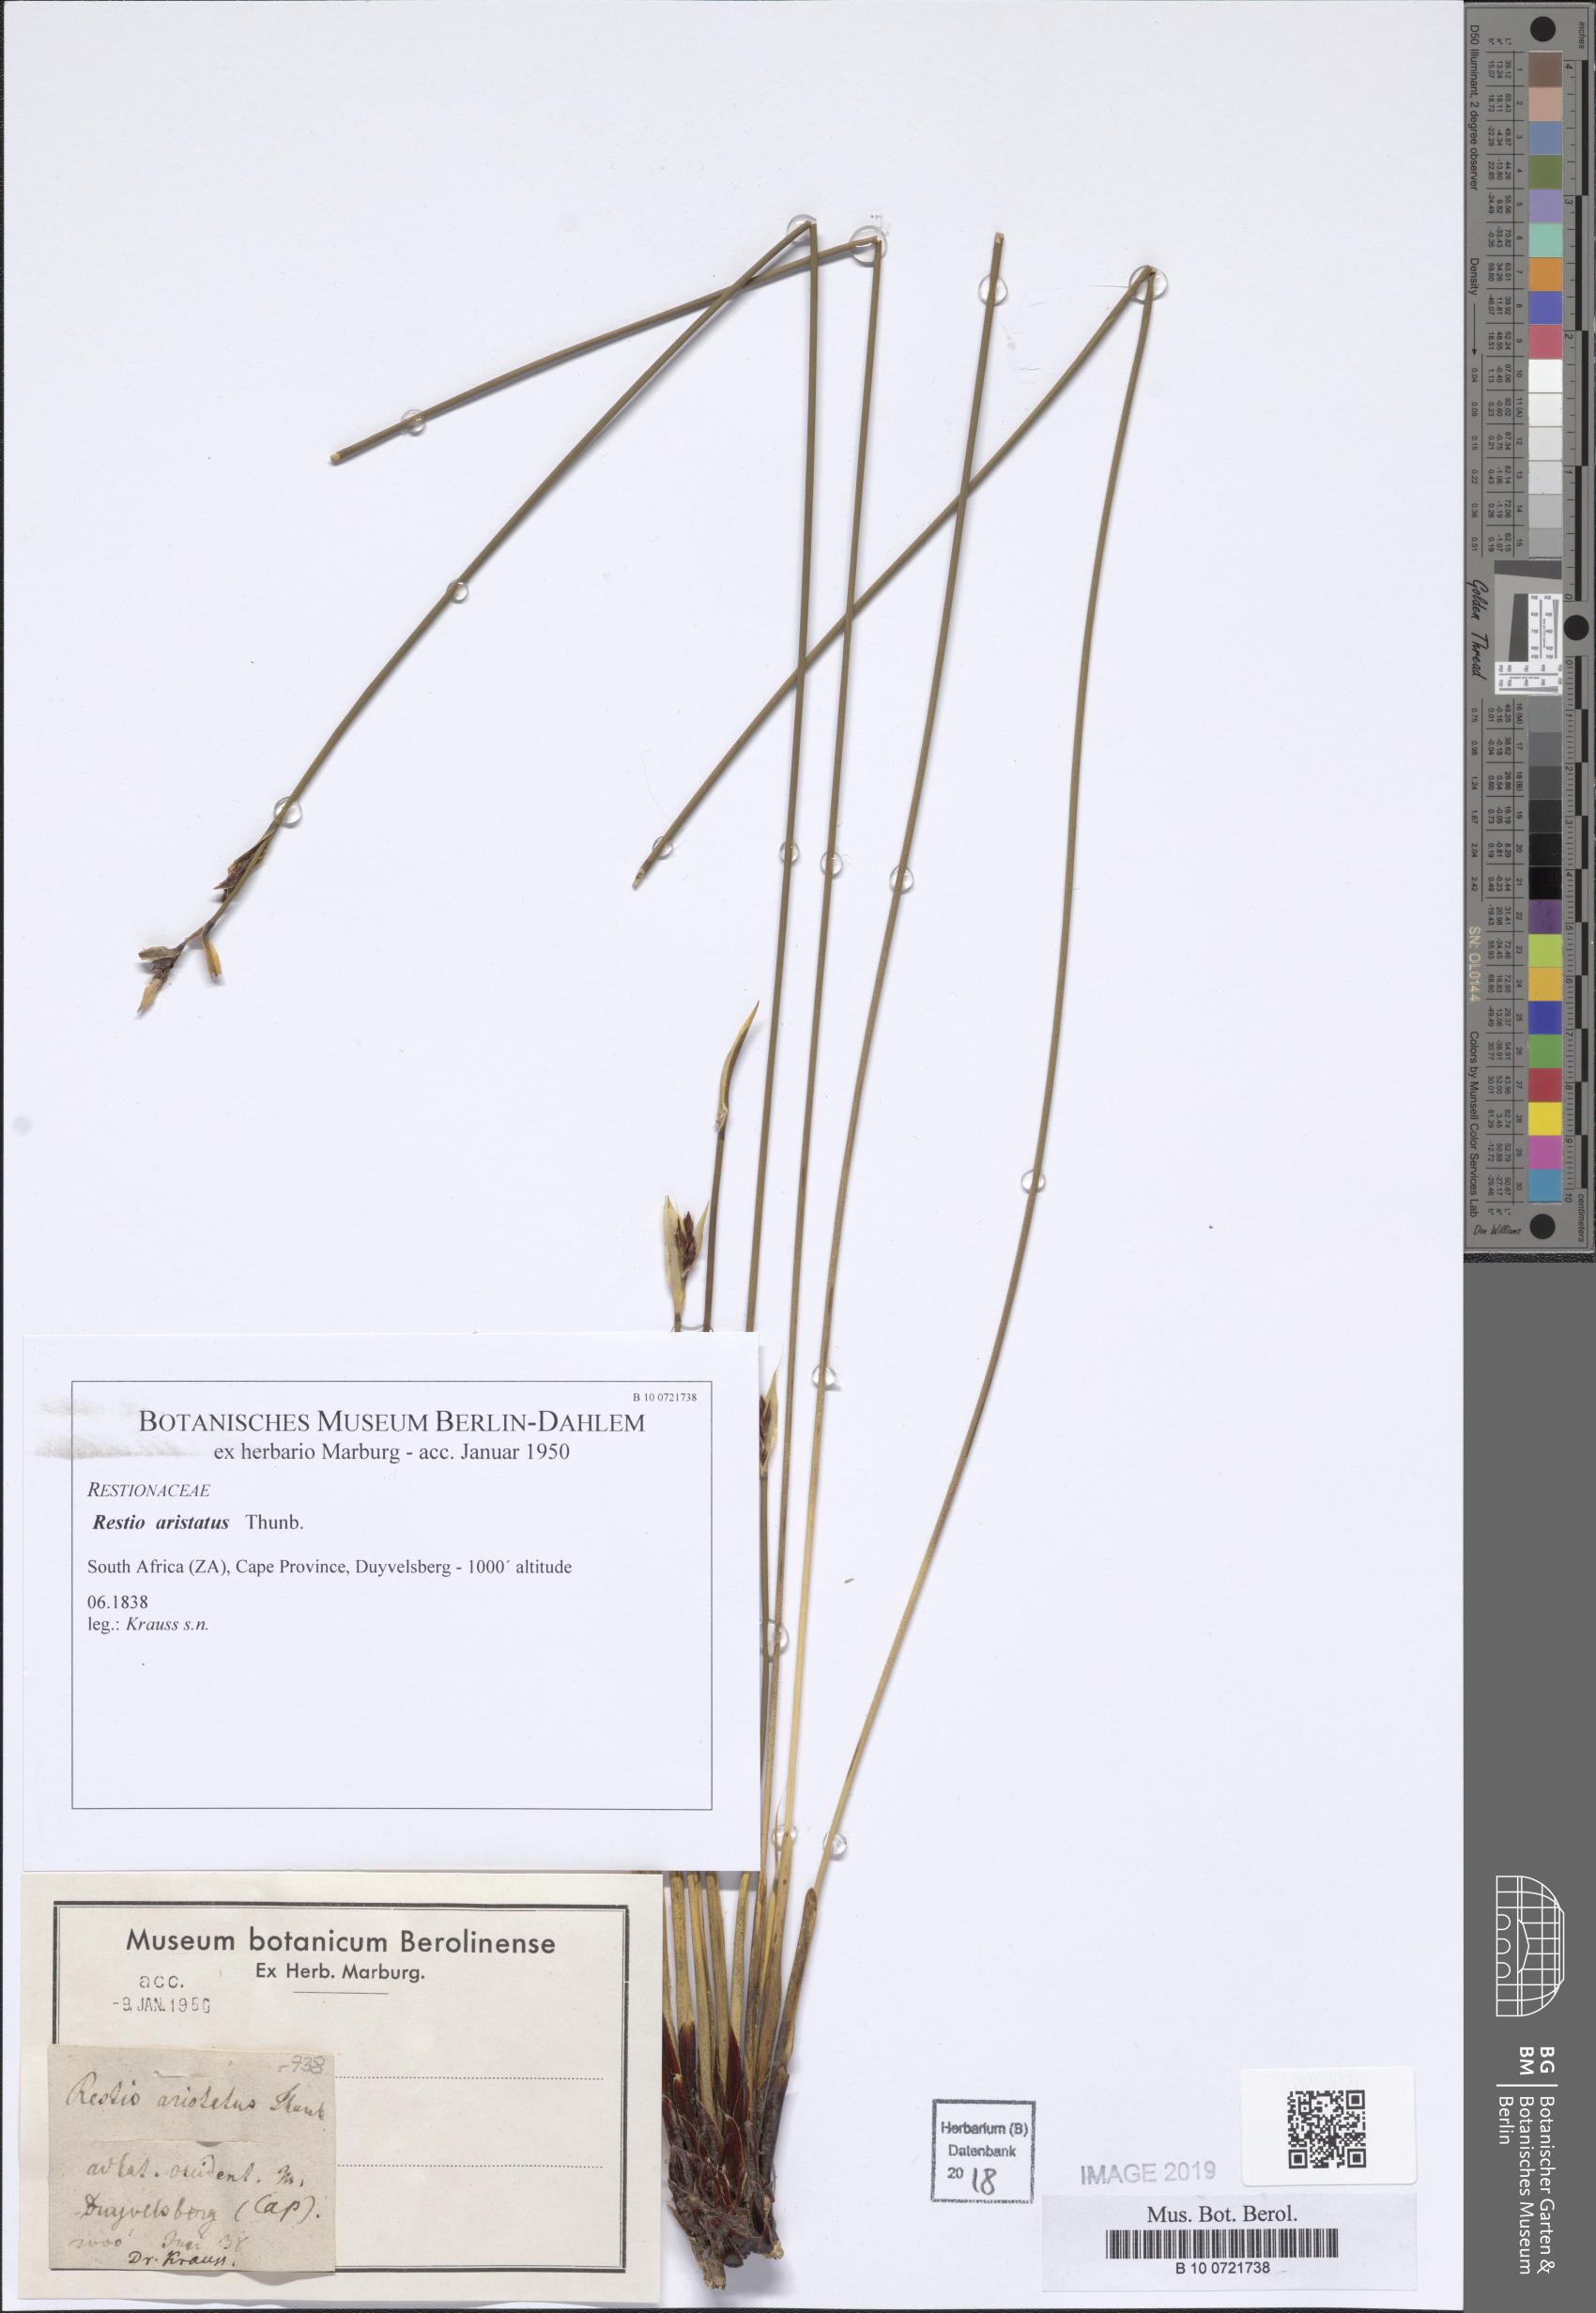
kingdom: Plantae
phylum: Tracheophyta
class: Liliopsida
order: Poales
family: Restionaceae
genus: Hypodiscus
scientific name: Hypodiscus aristatus
